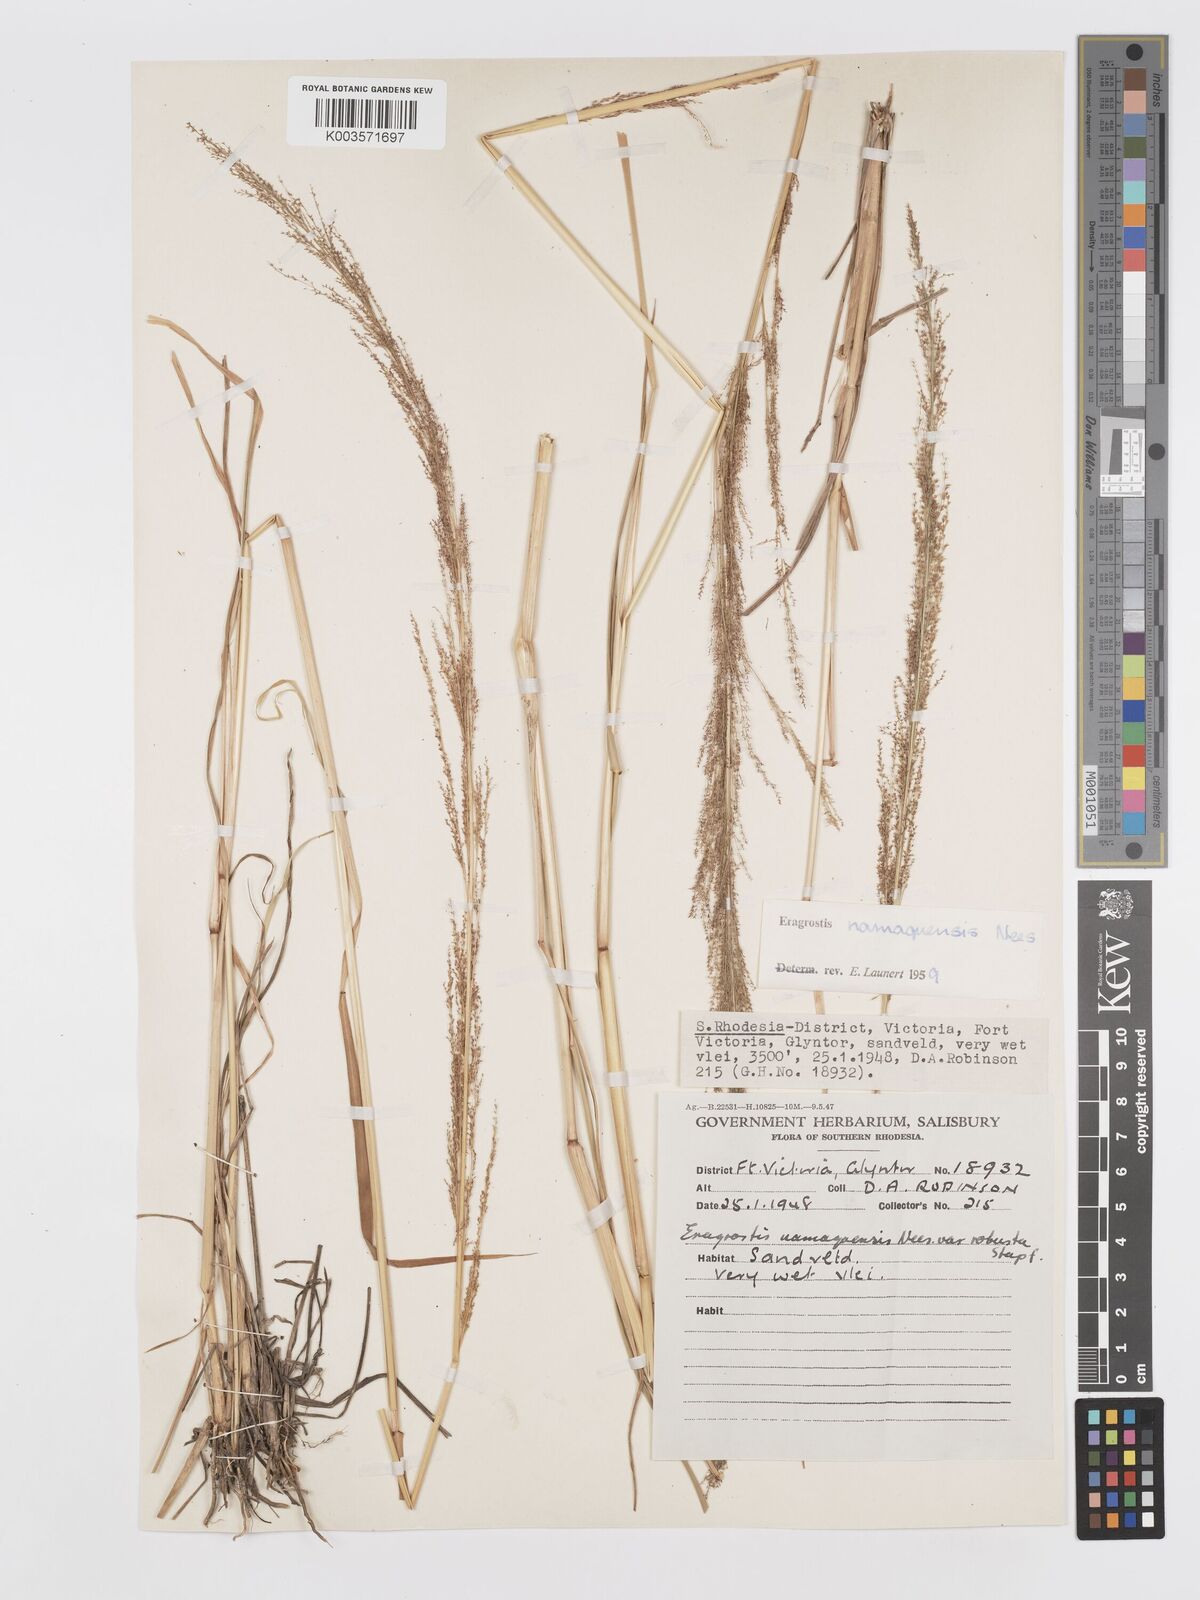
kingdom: Plantae
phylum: Tracheophyta
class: Liliopsida
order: Poales
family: Poaceae
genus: Eragrostis
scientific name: Eragrostis japonica
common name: Pond lovegrass
